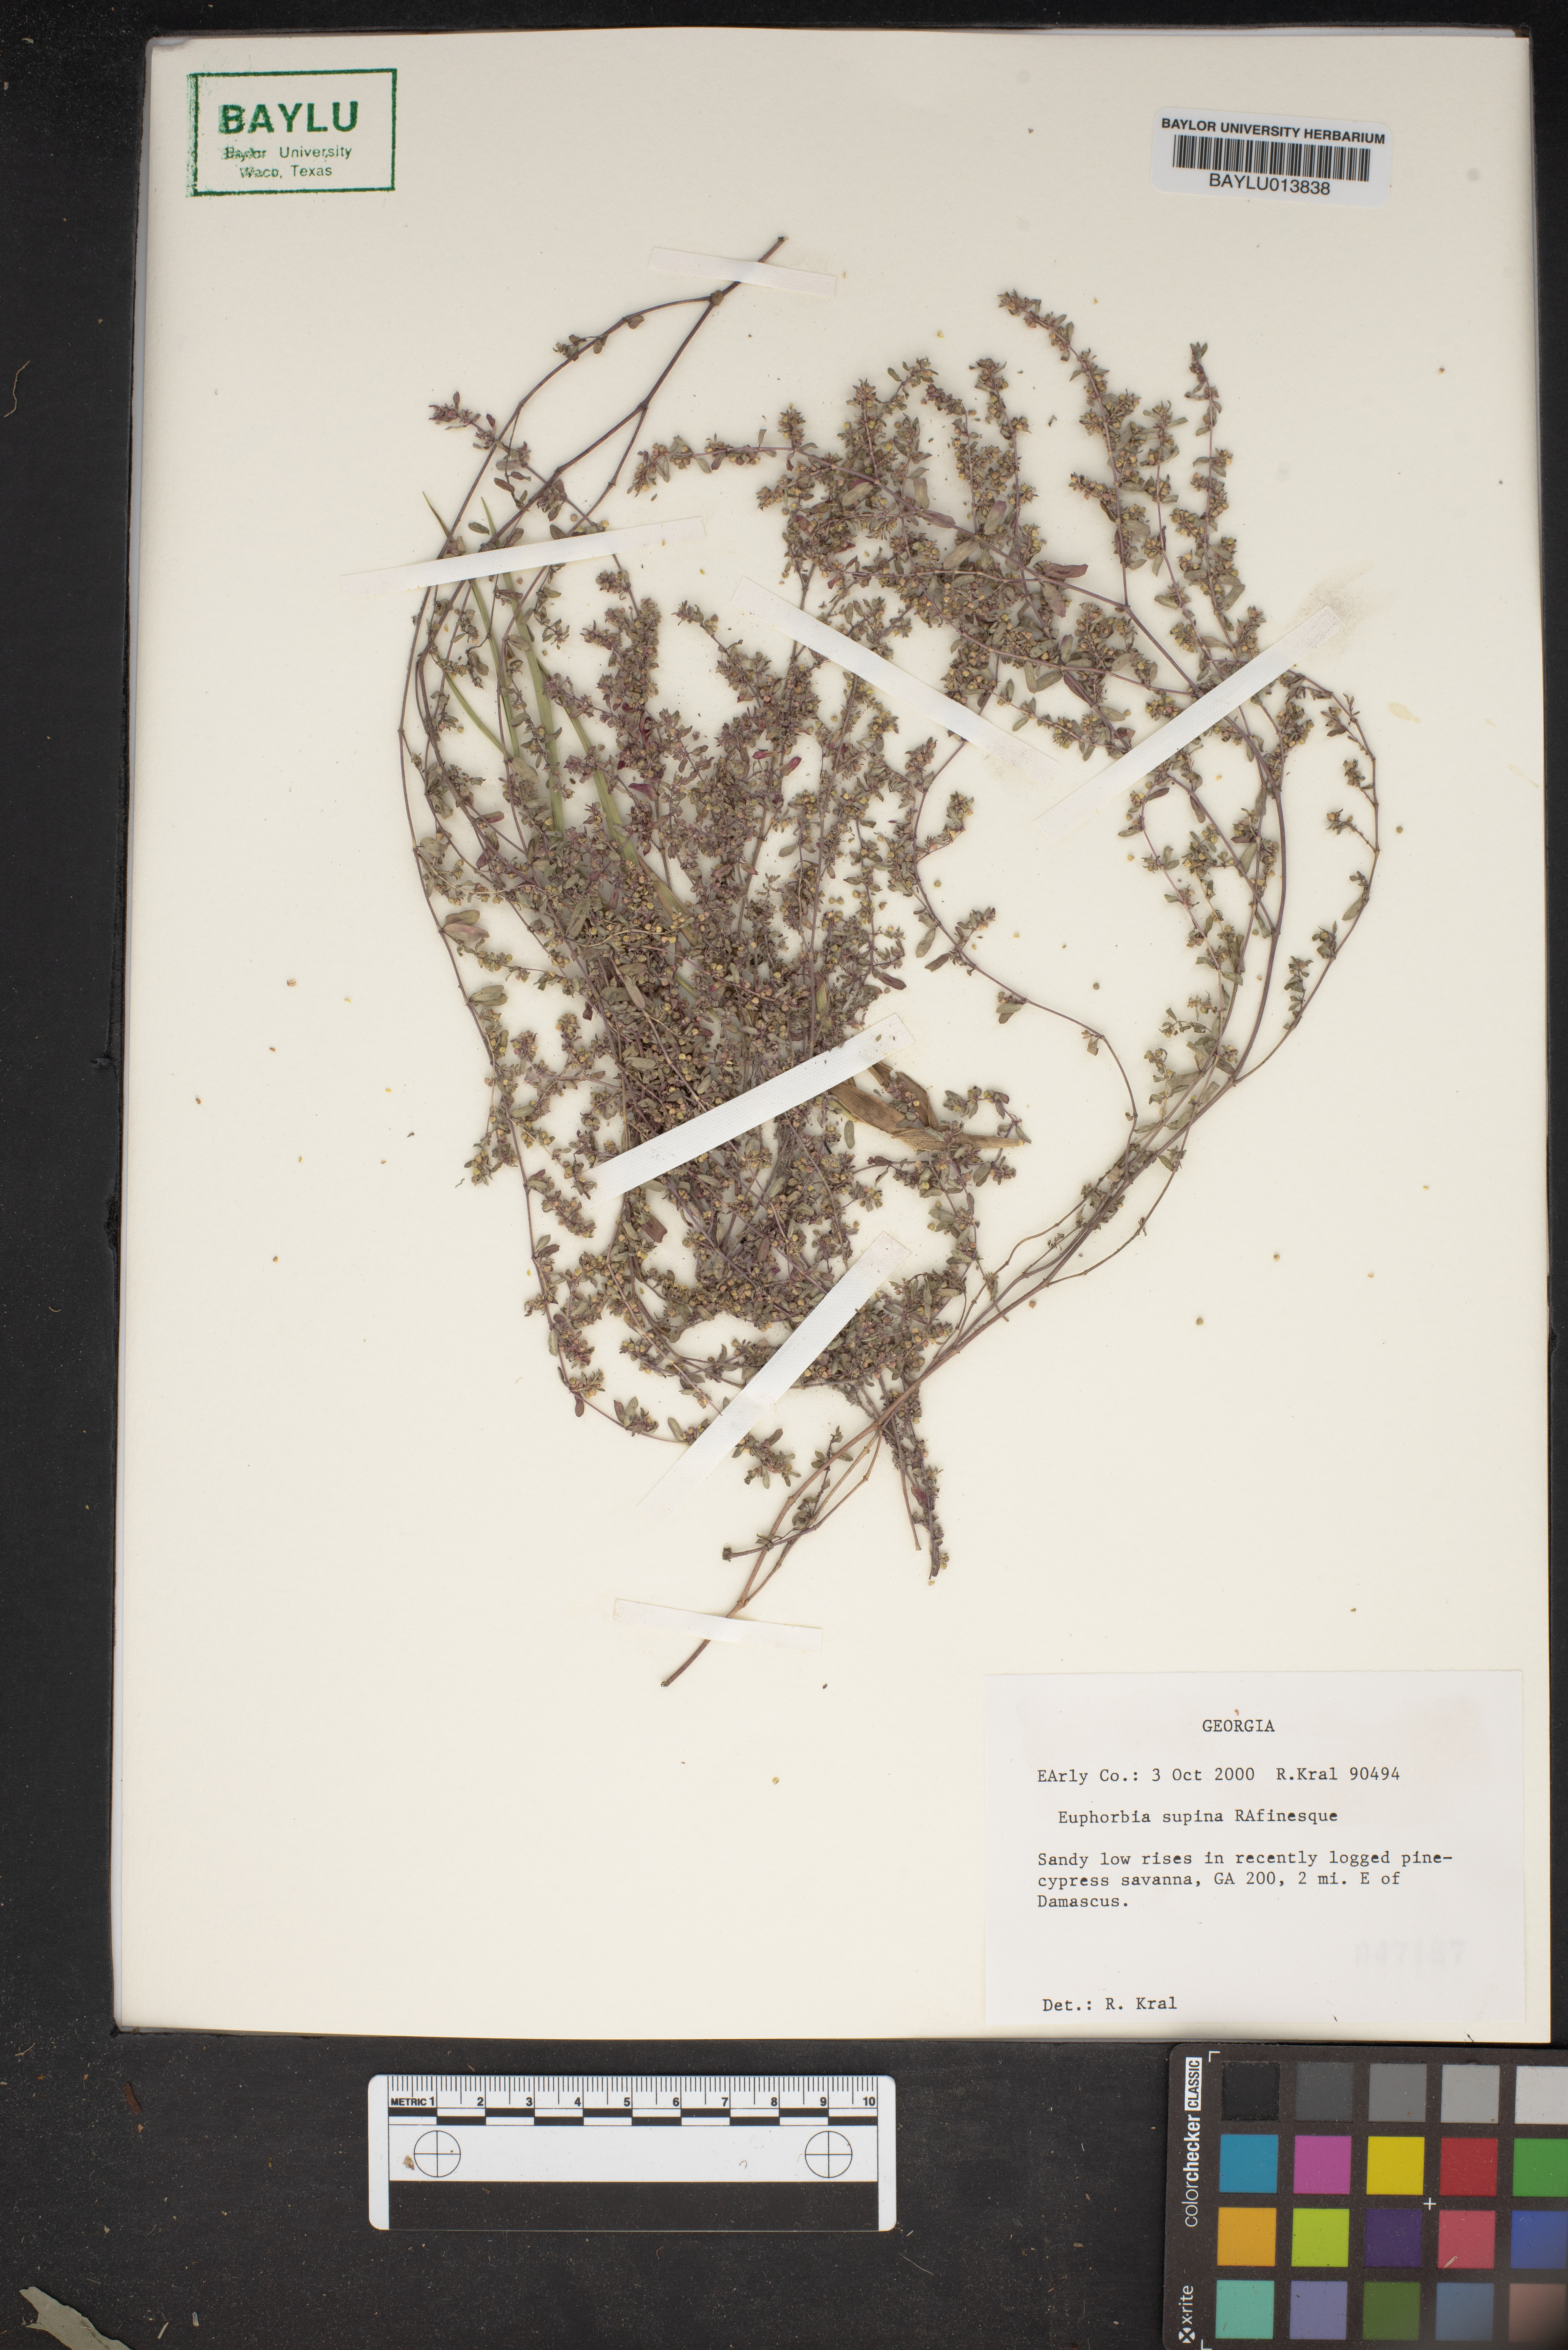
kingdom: Plantae
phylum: Tracheophyta
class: Magnoliopsida
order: Malpighiales
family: Euphorbiaceae
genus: Euphorbia
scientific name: Euphorbia maculata
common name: Spotted spurge
